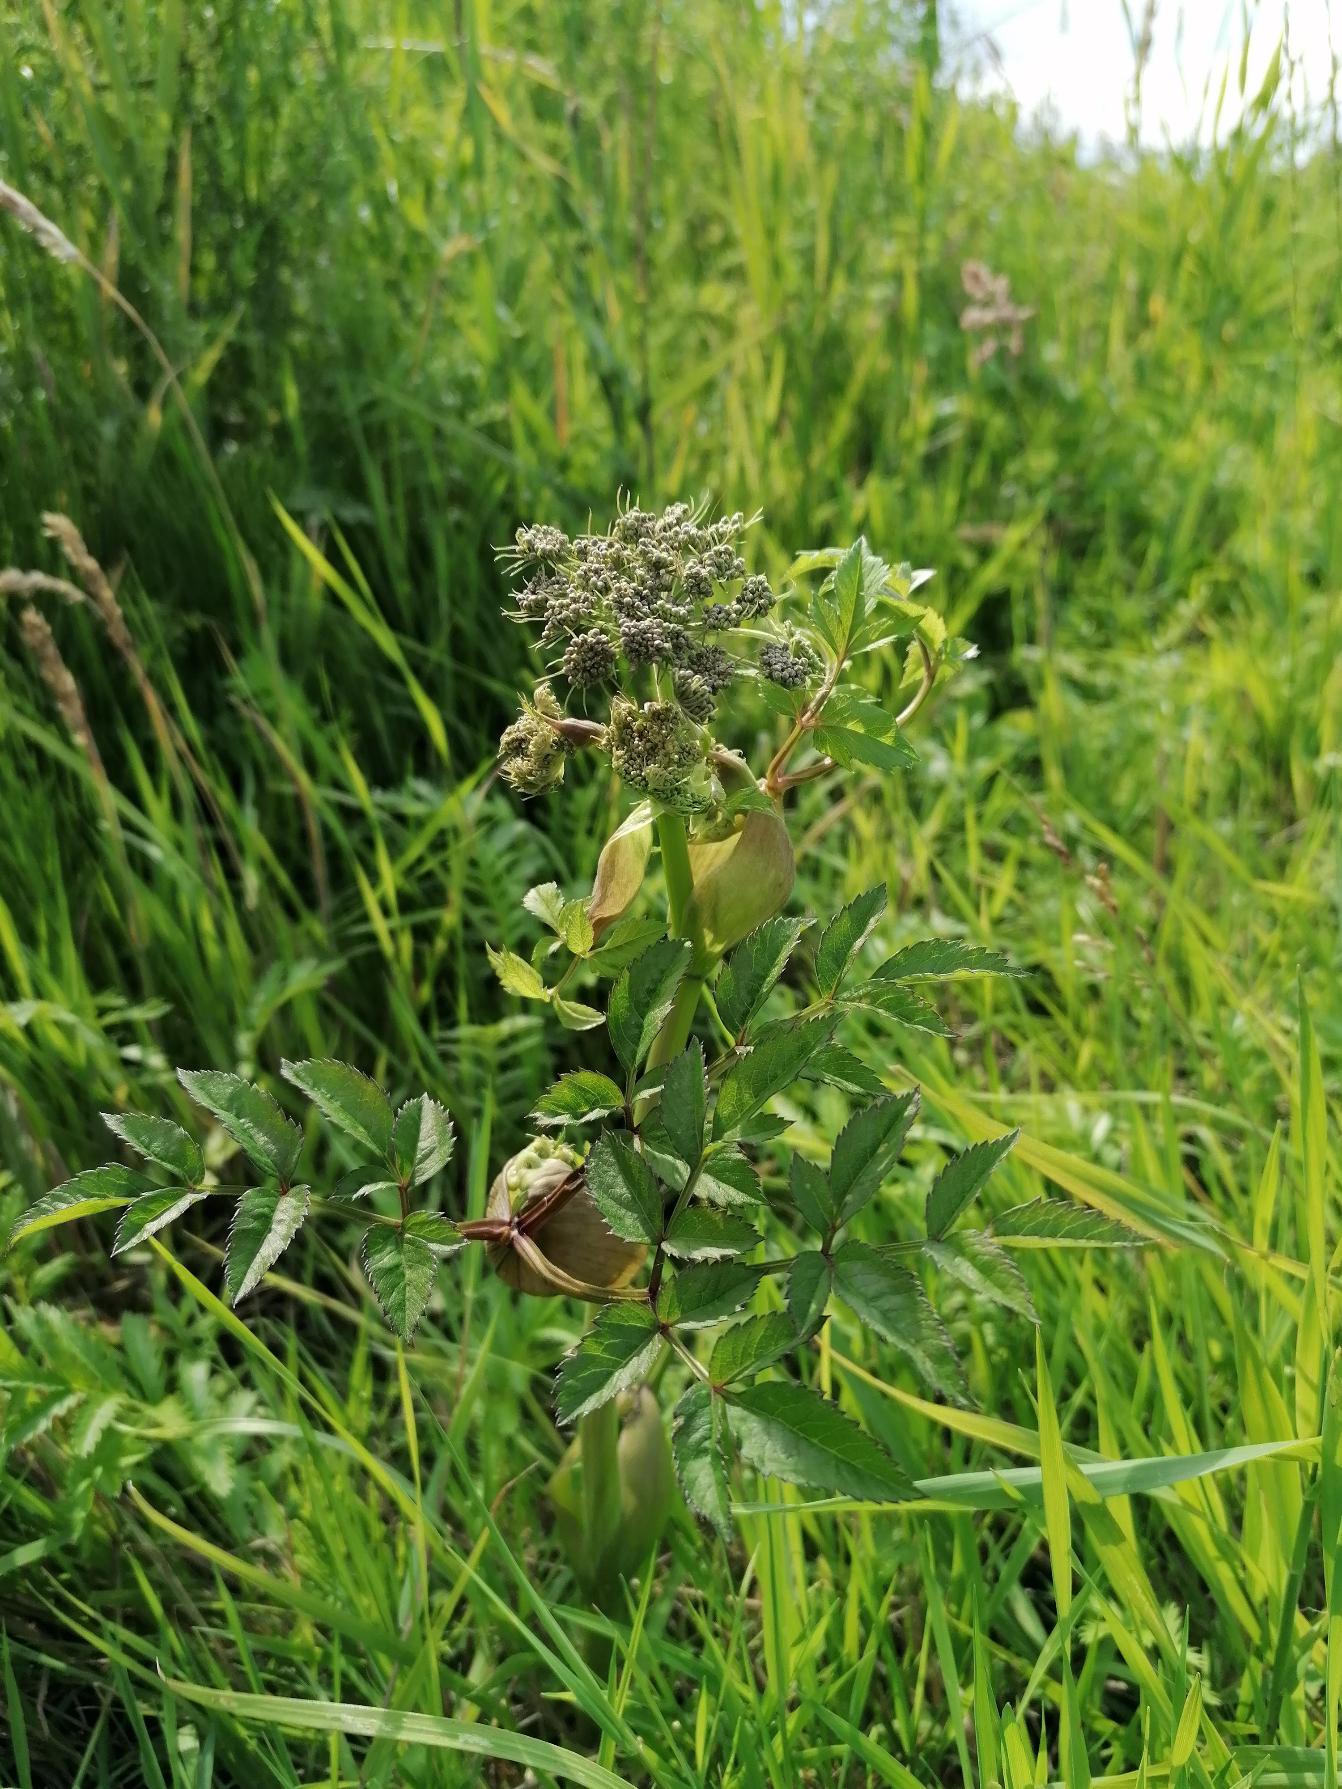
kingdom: Plantae
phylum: Tracheophyta
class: Magnoliopsida
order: Apiales
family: Apiaceae
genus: Angelica
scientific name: Angelica sylvestris
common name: Angelik
